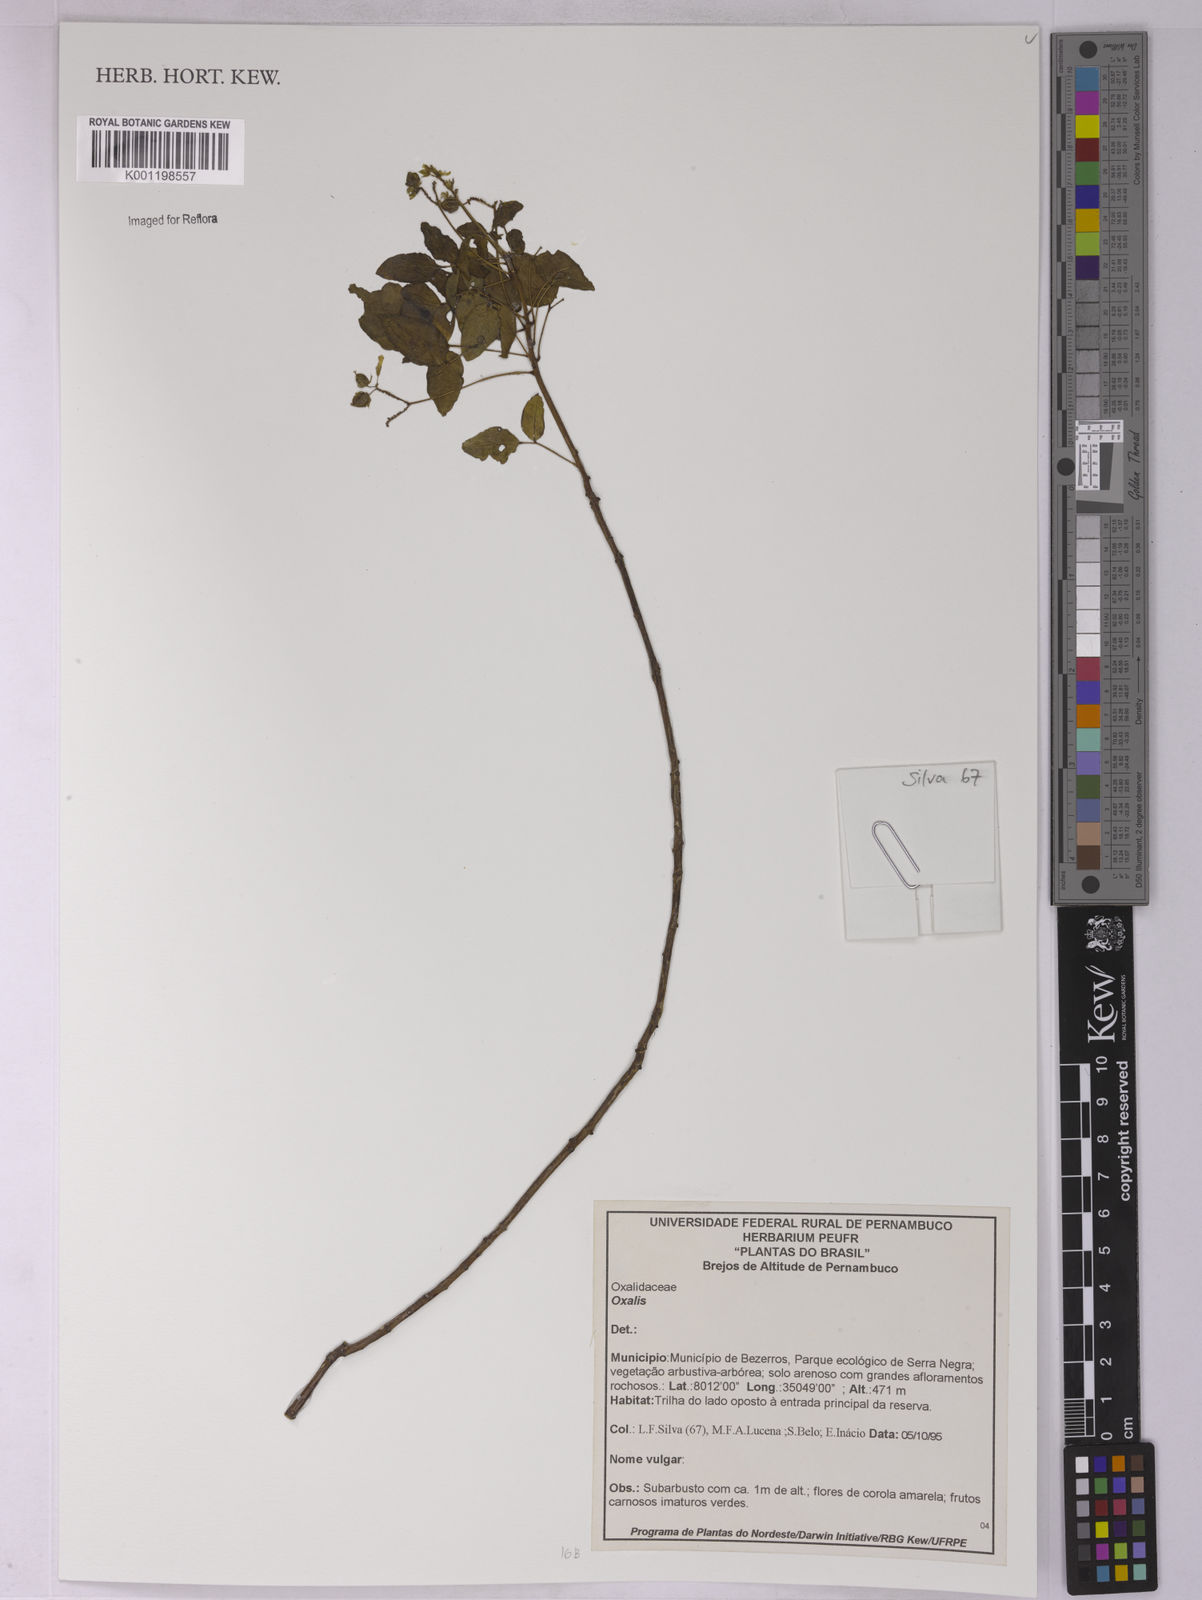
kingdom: Plantae
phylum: Tracheophyta
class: Magnoliopsida
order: Oxalidales
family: Oxalidaceae
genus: Oxalis
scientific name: Oxalis
